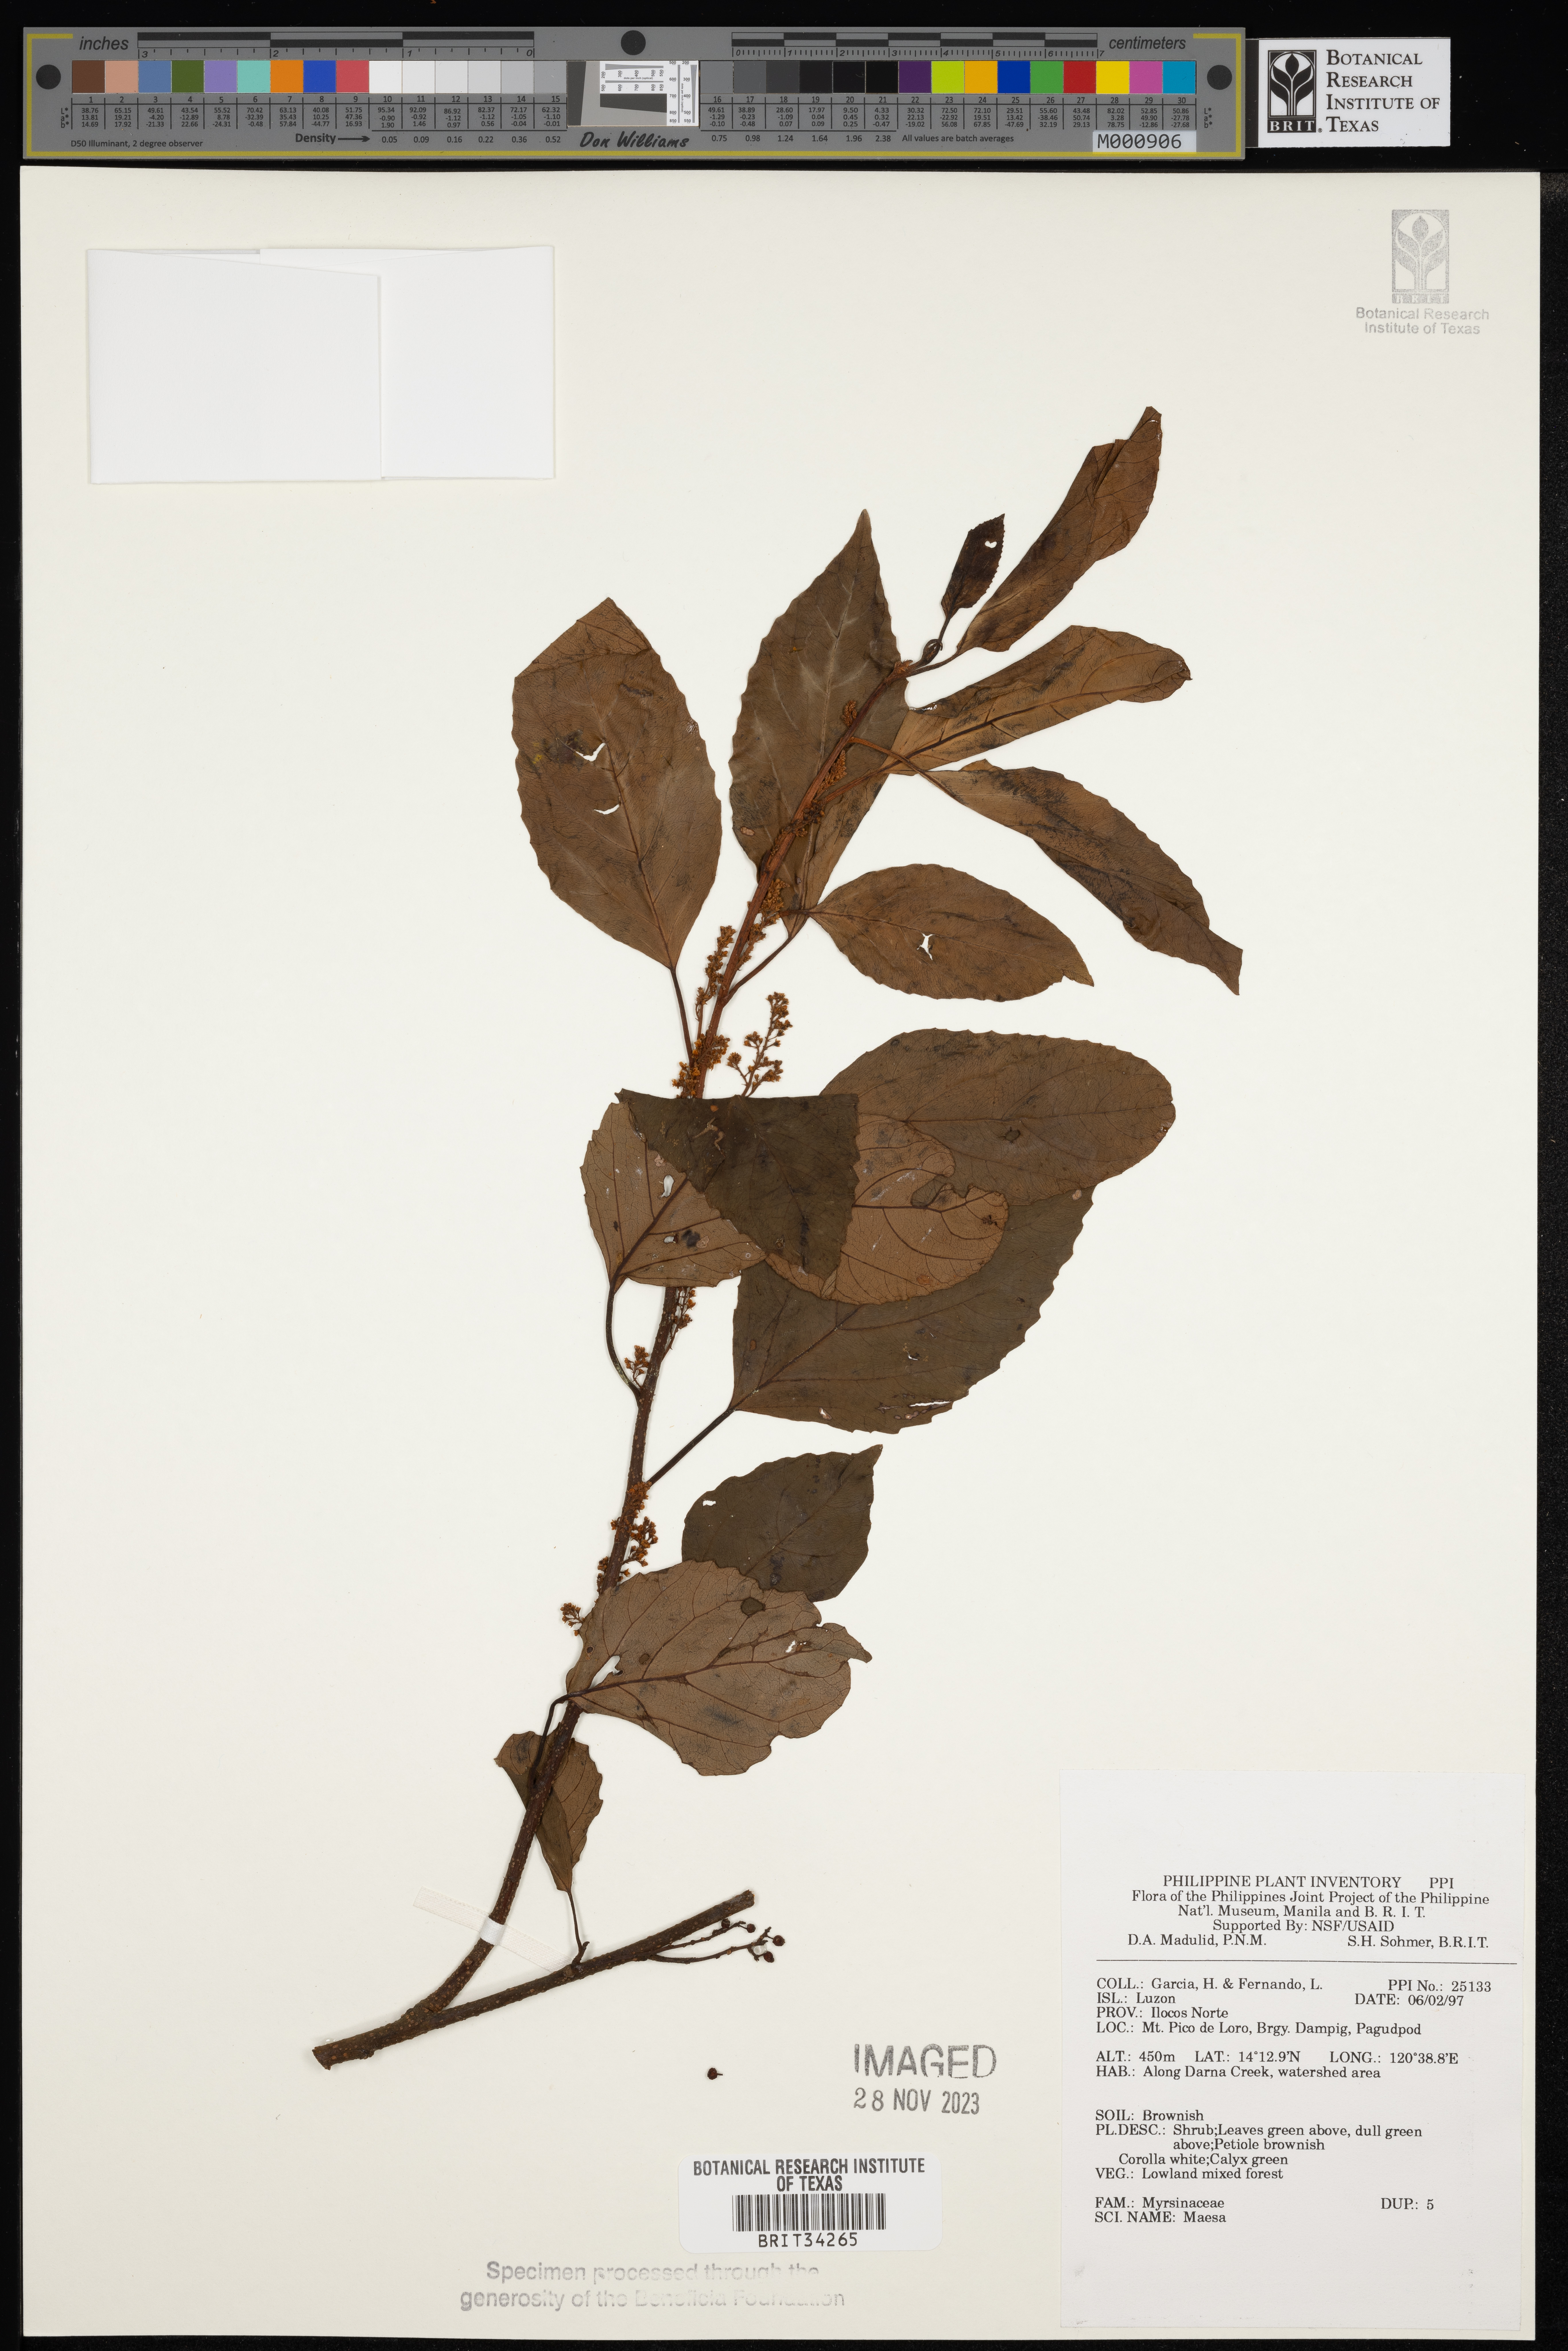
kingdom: Plantae
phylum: Tracheophyta
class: Magnoliopsida
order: Ericales
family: Primulaceae
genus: Maesa
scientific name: Maesa
